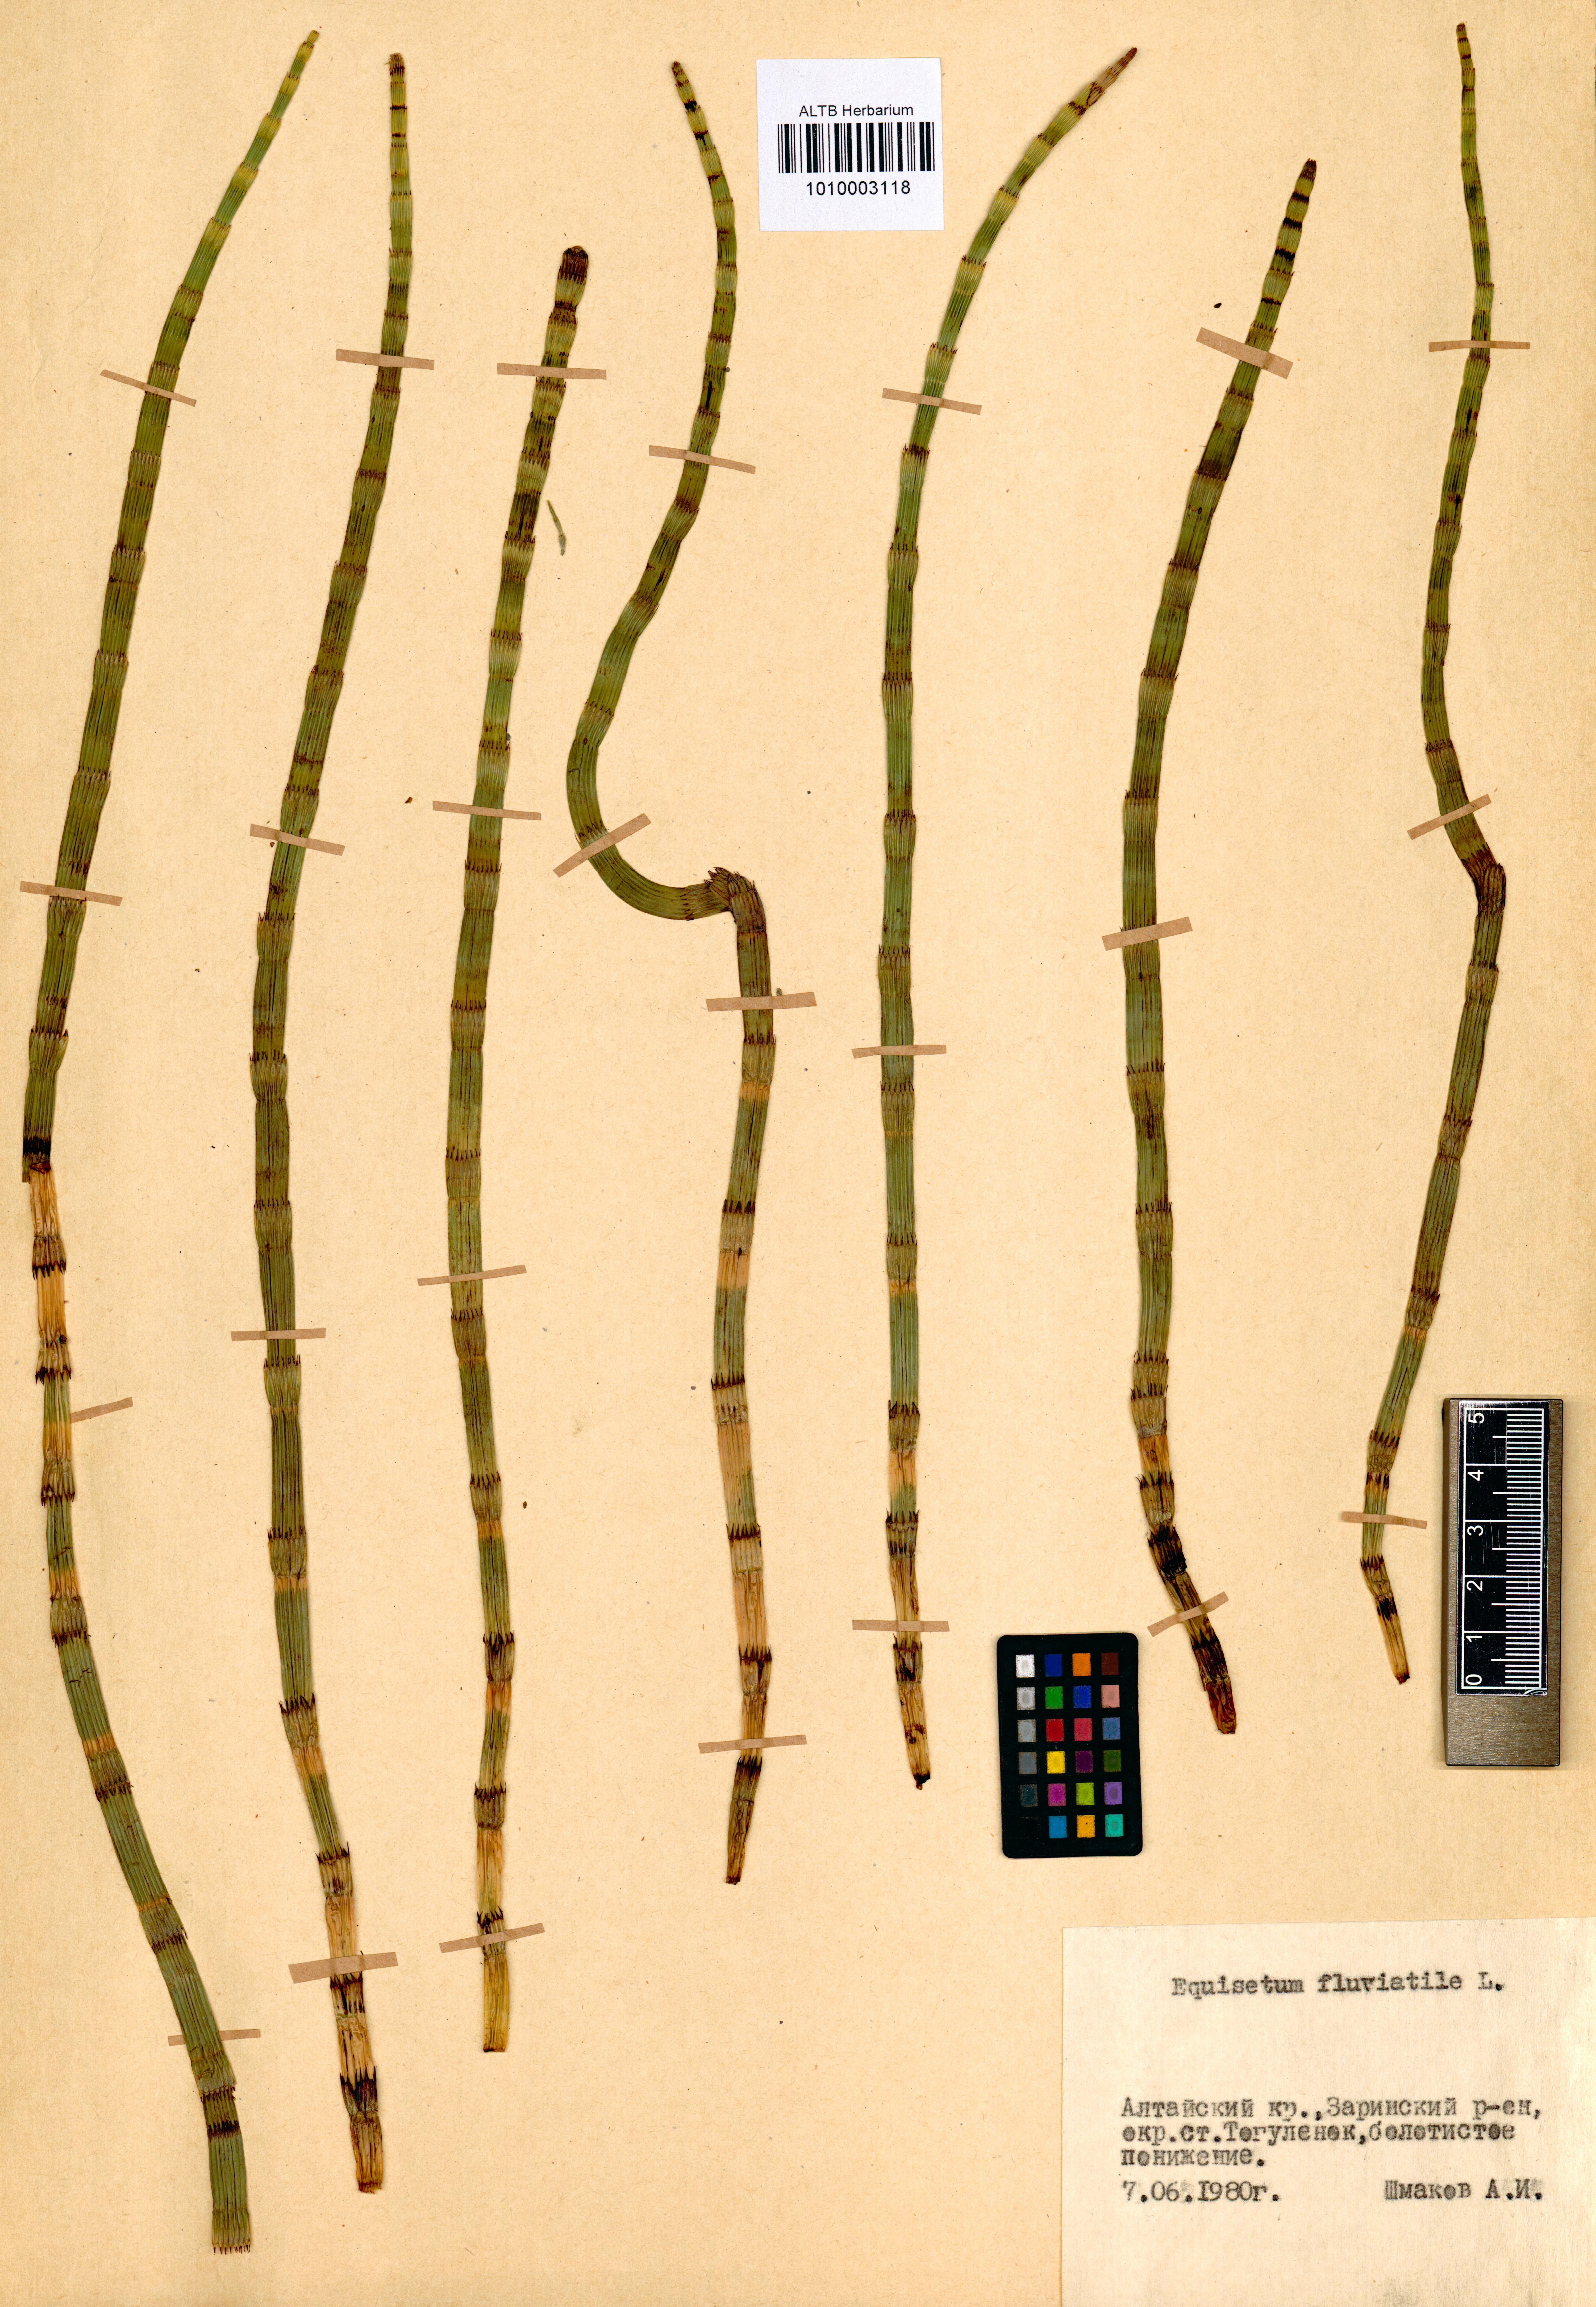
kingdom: Plantae
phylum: Tracheophyta
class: Polypodiopsida
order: Equisetales
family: Equisetaceae
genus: Equisetum
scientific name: Equisetum fluviatile
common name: Water horsetail
